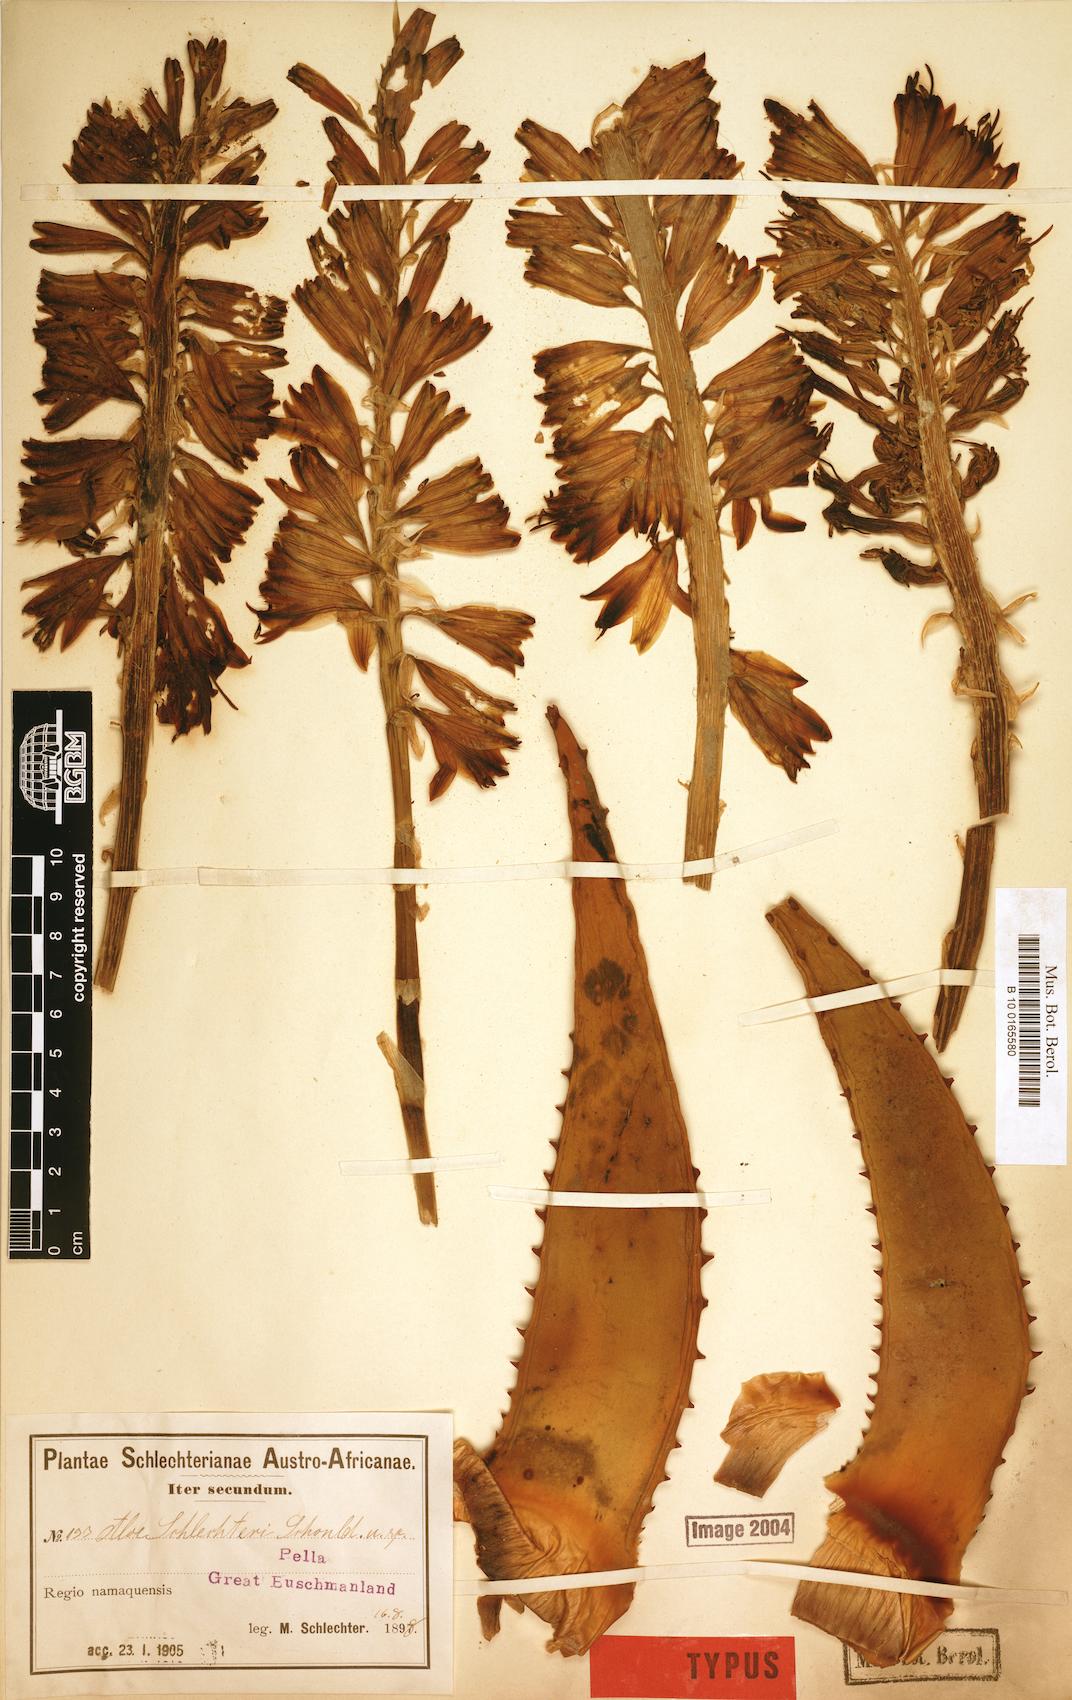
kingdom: Plantae
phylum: Tracheophyta
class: Liliopsida
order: Asparagales
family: Asphodelaceae
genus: Aloe
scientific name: Aloe claviflora
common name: Cannon aloe
